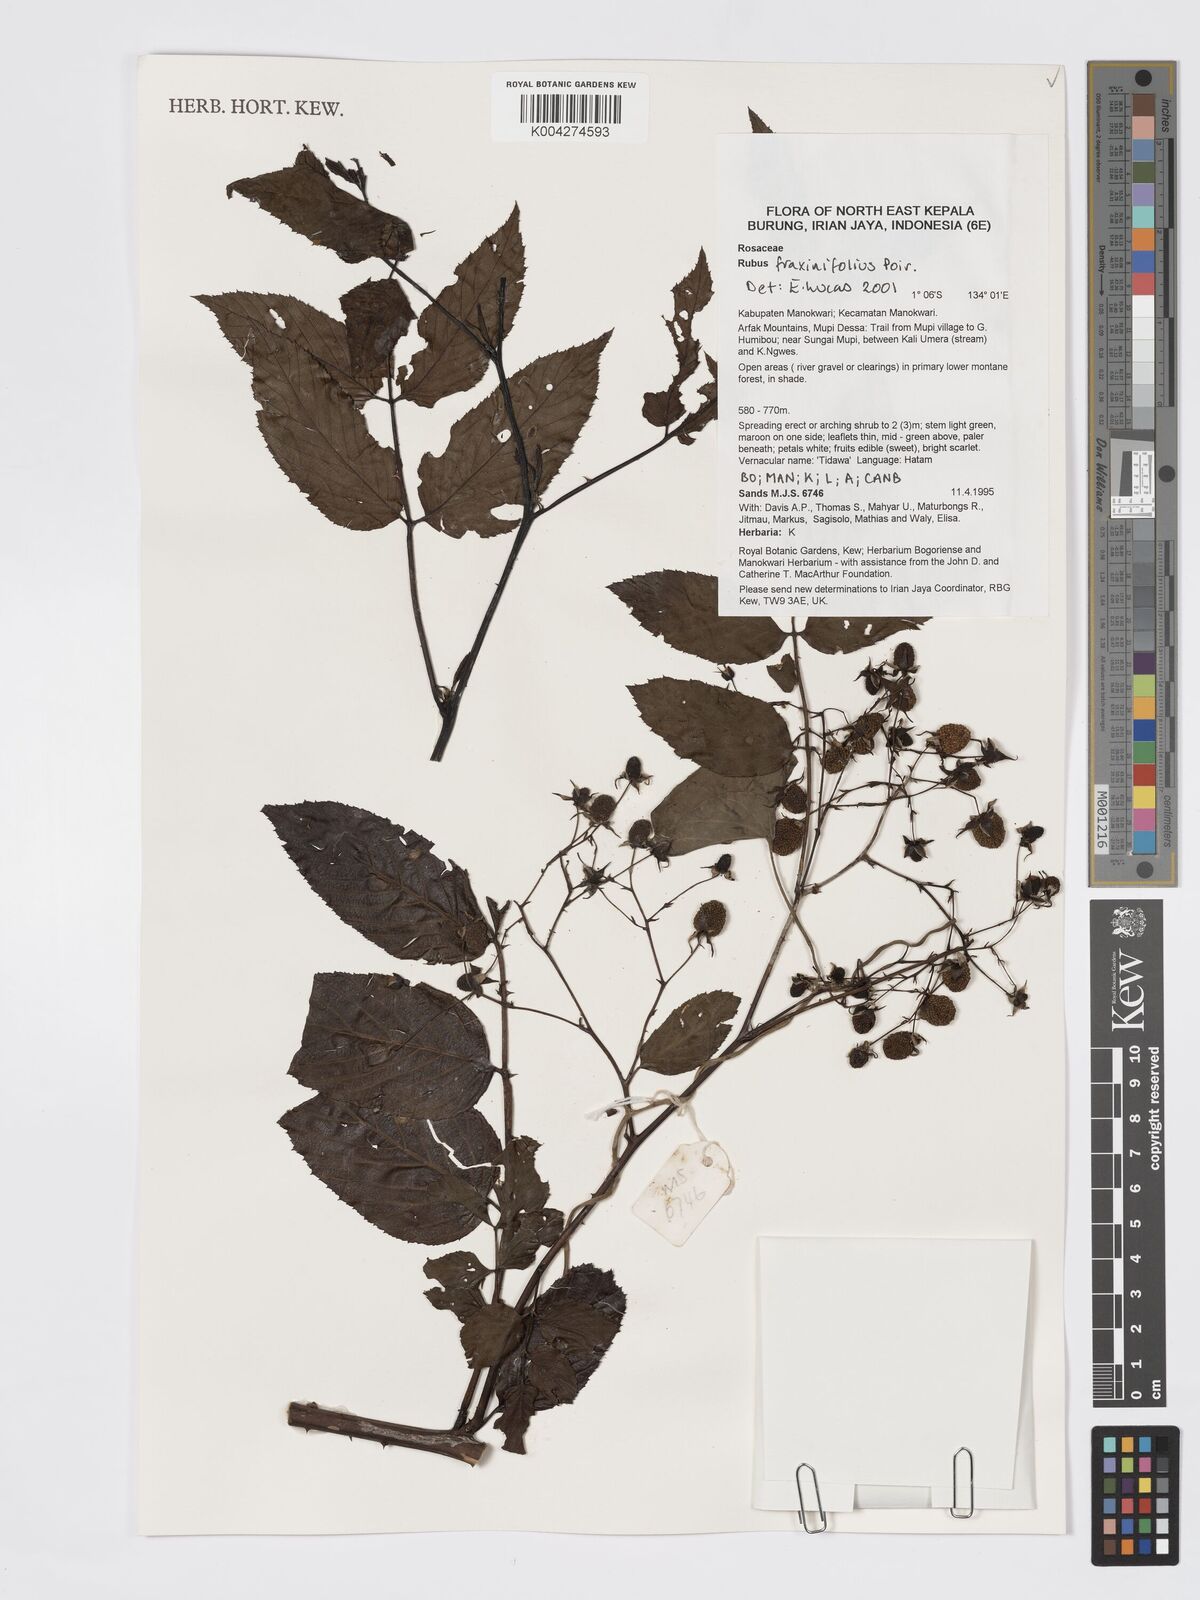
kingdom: Plantae
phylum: Tracheophyta
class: Magnoliopsida
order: Rosales
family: Rosaceae
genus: Rubus
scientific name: Rubus fraxinifolius
